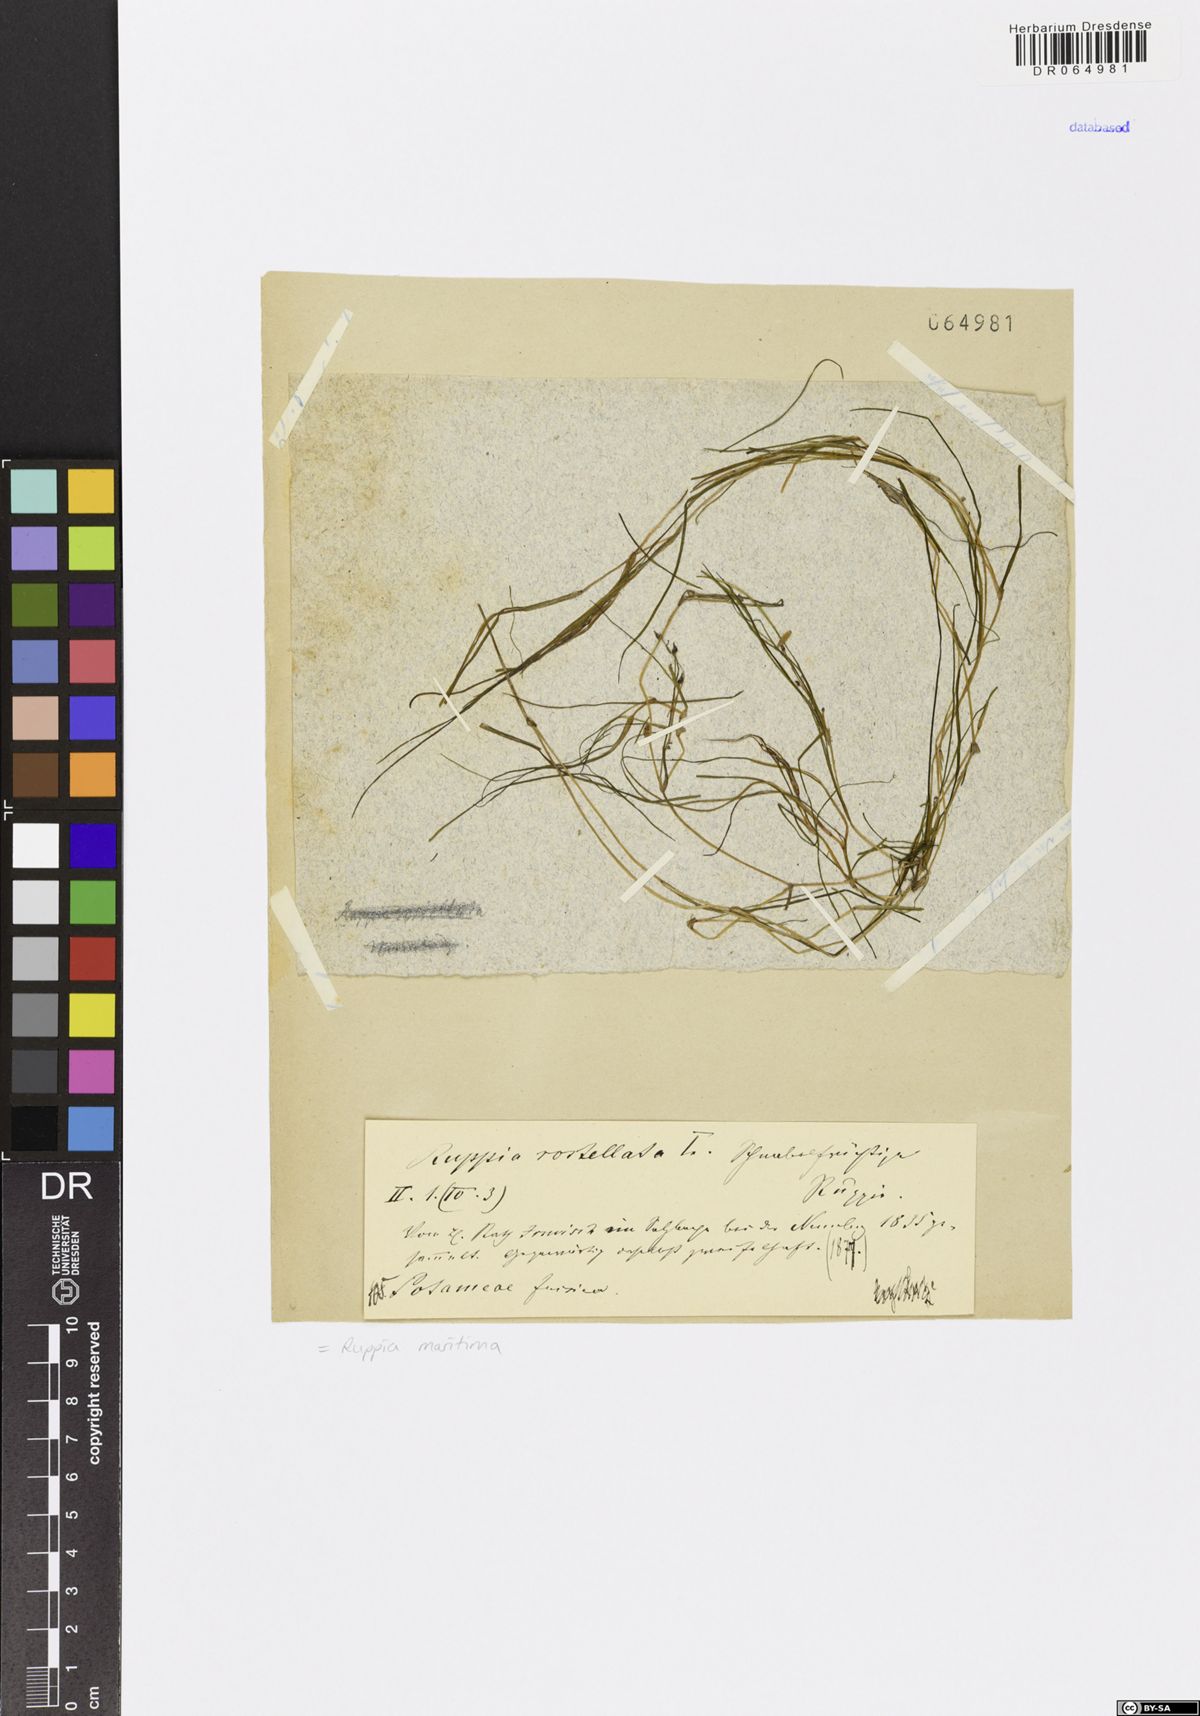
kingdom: Plantae
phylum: Tracheophyta
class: Liliopsida
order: Alismatales
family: Ruppiaceae
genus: Ruppia
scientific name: Ruppia maritima
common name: Beaked tasselweed
